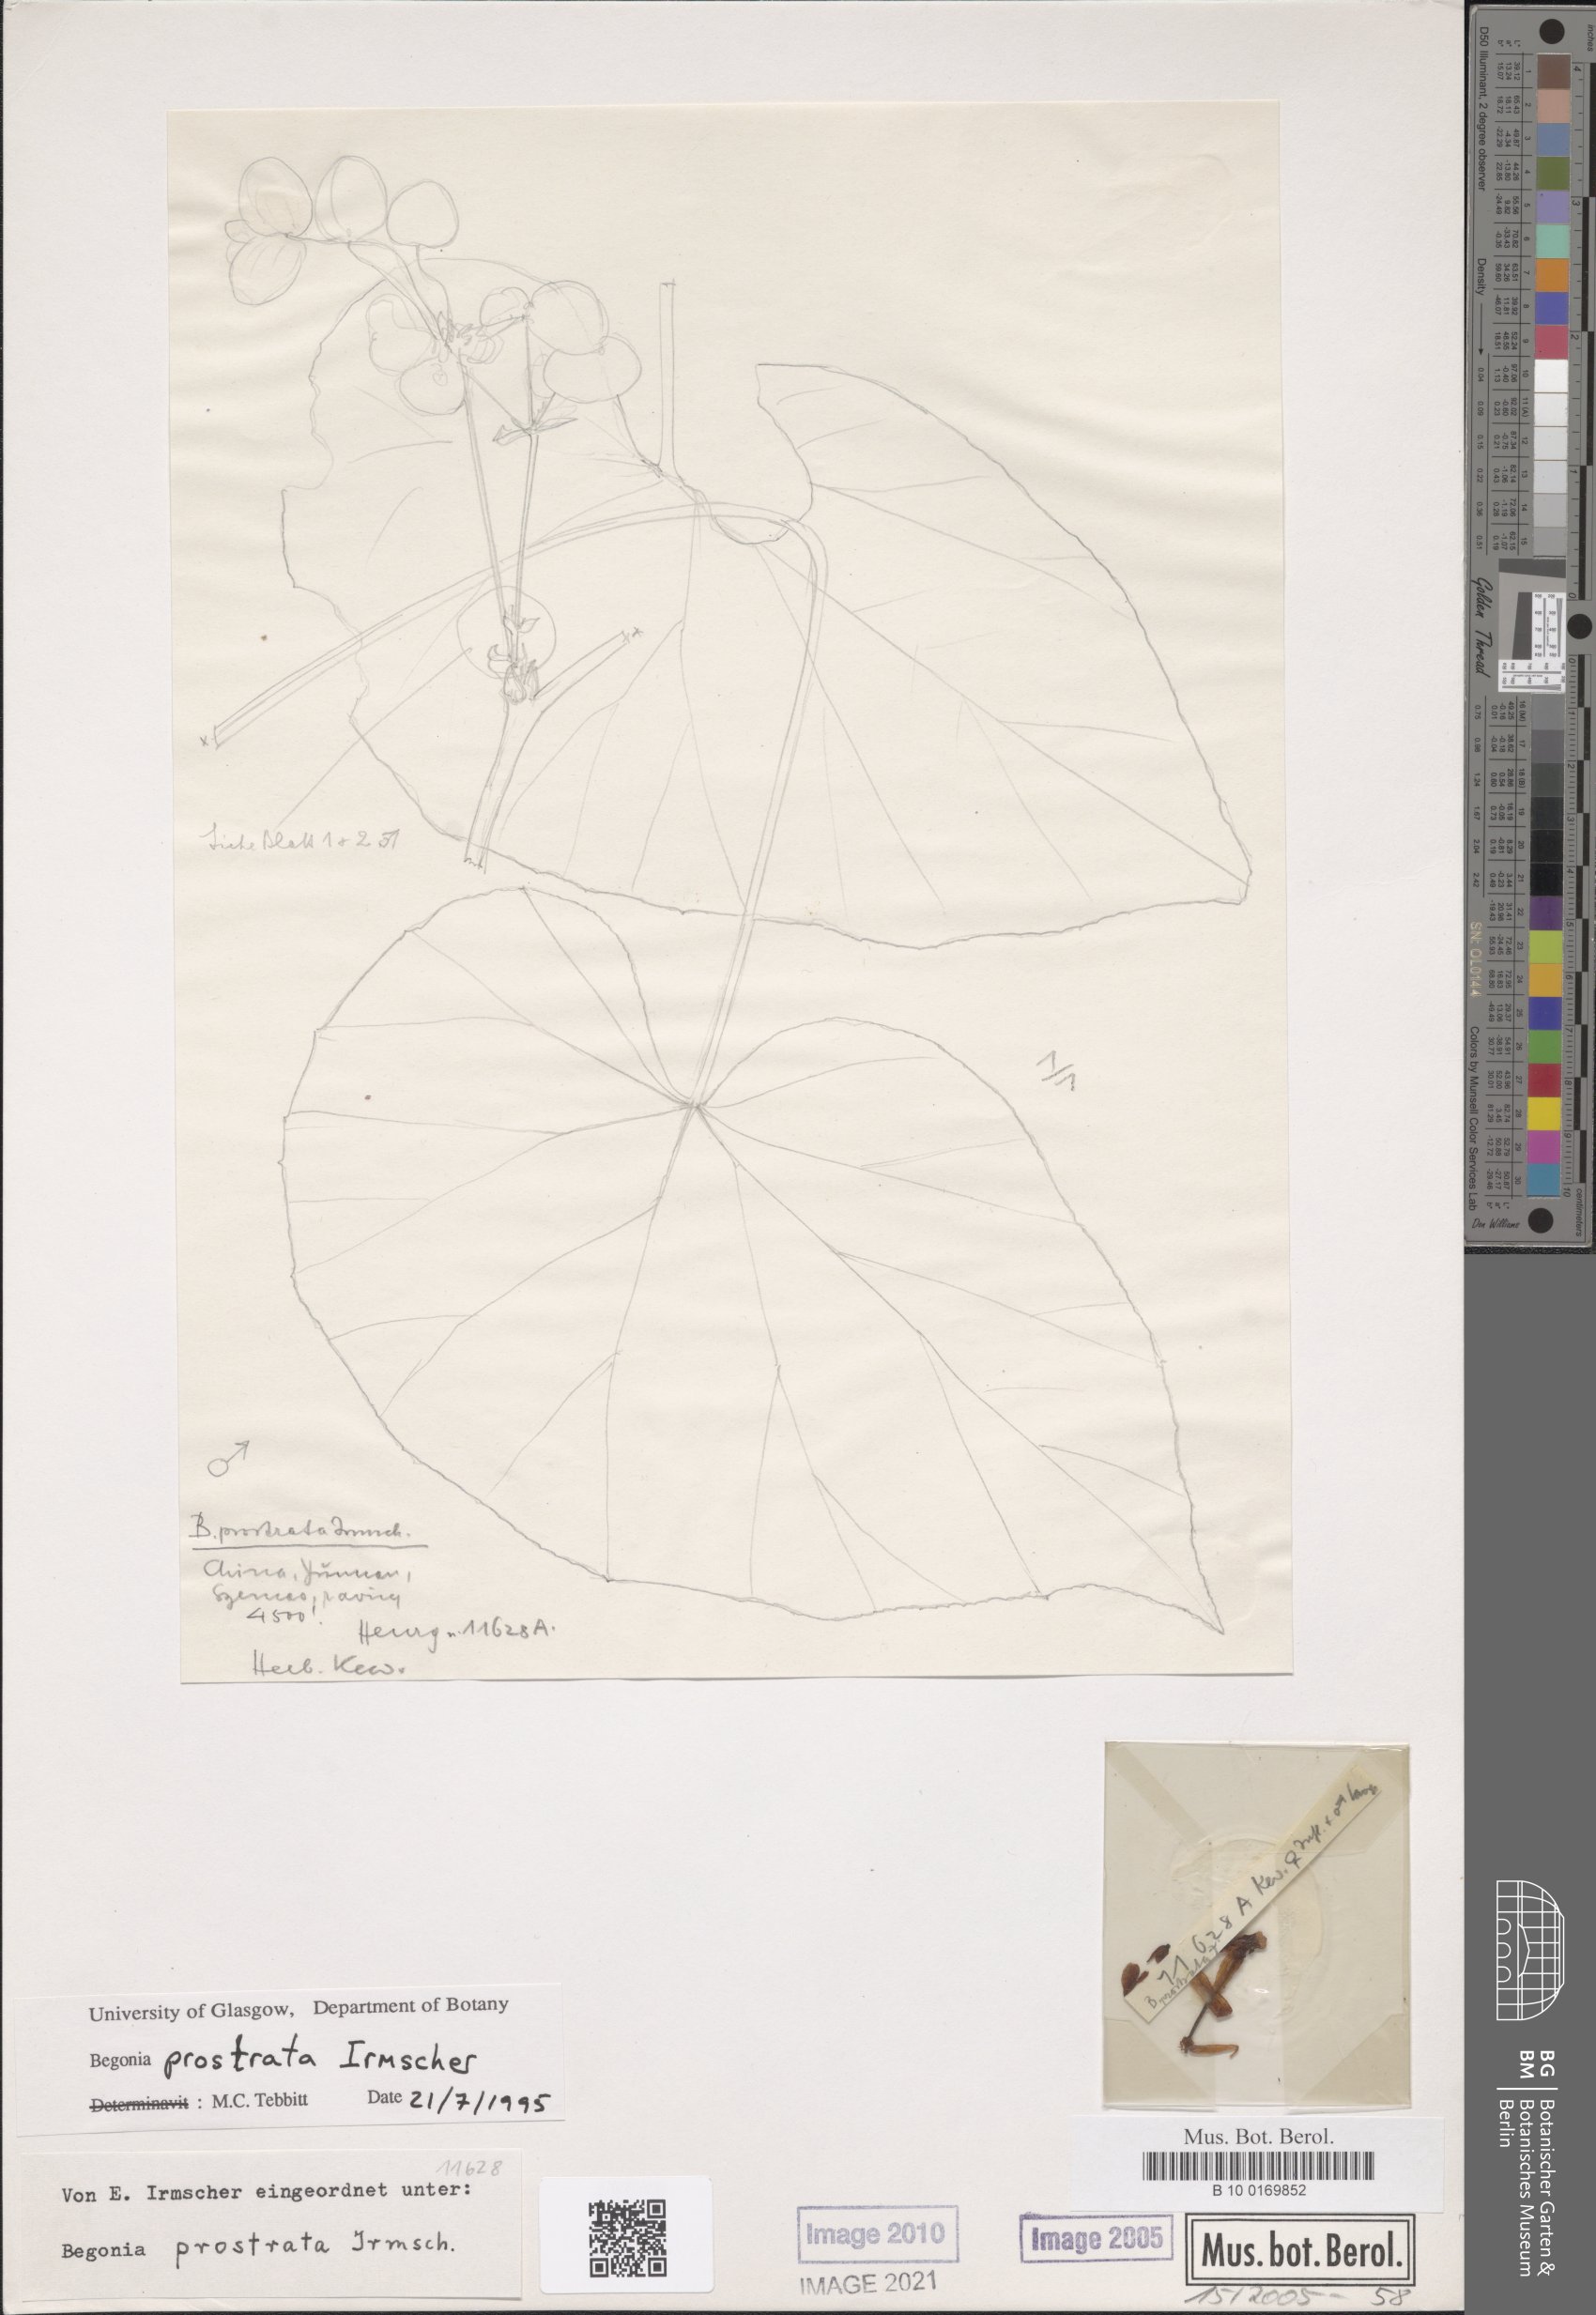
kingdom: Plantae
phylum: Tracheophyta
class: Magnoliopsida
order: Cucurbitales
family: Begoniaceae
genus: Begonia
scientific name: Begonia handelii
